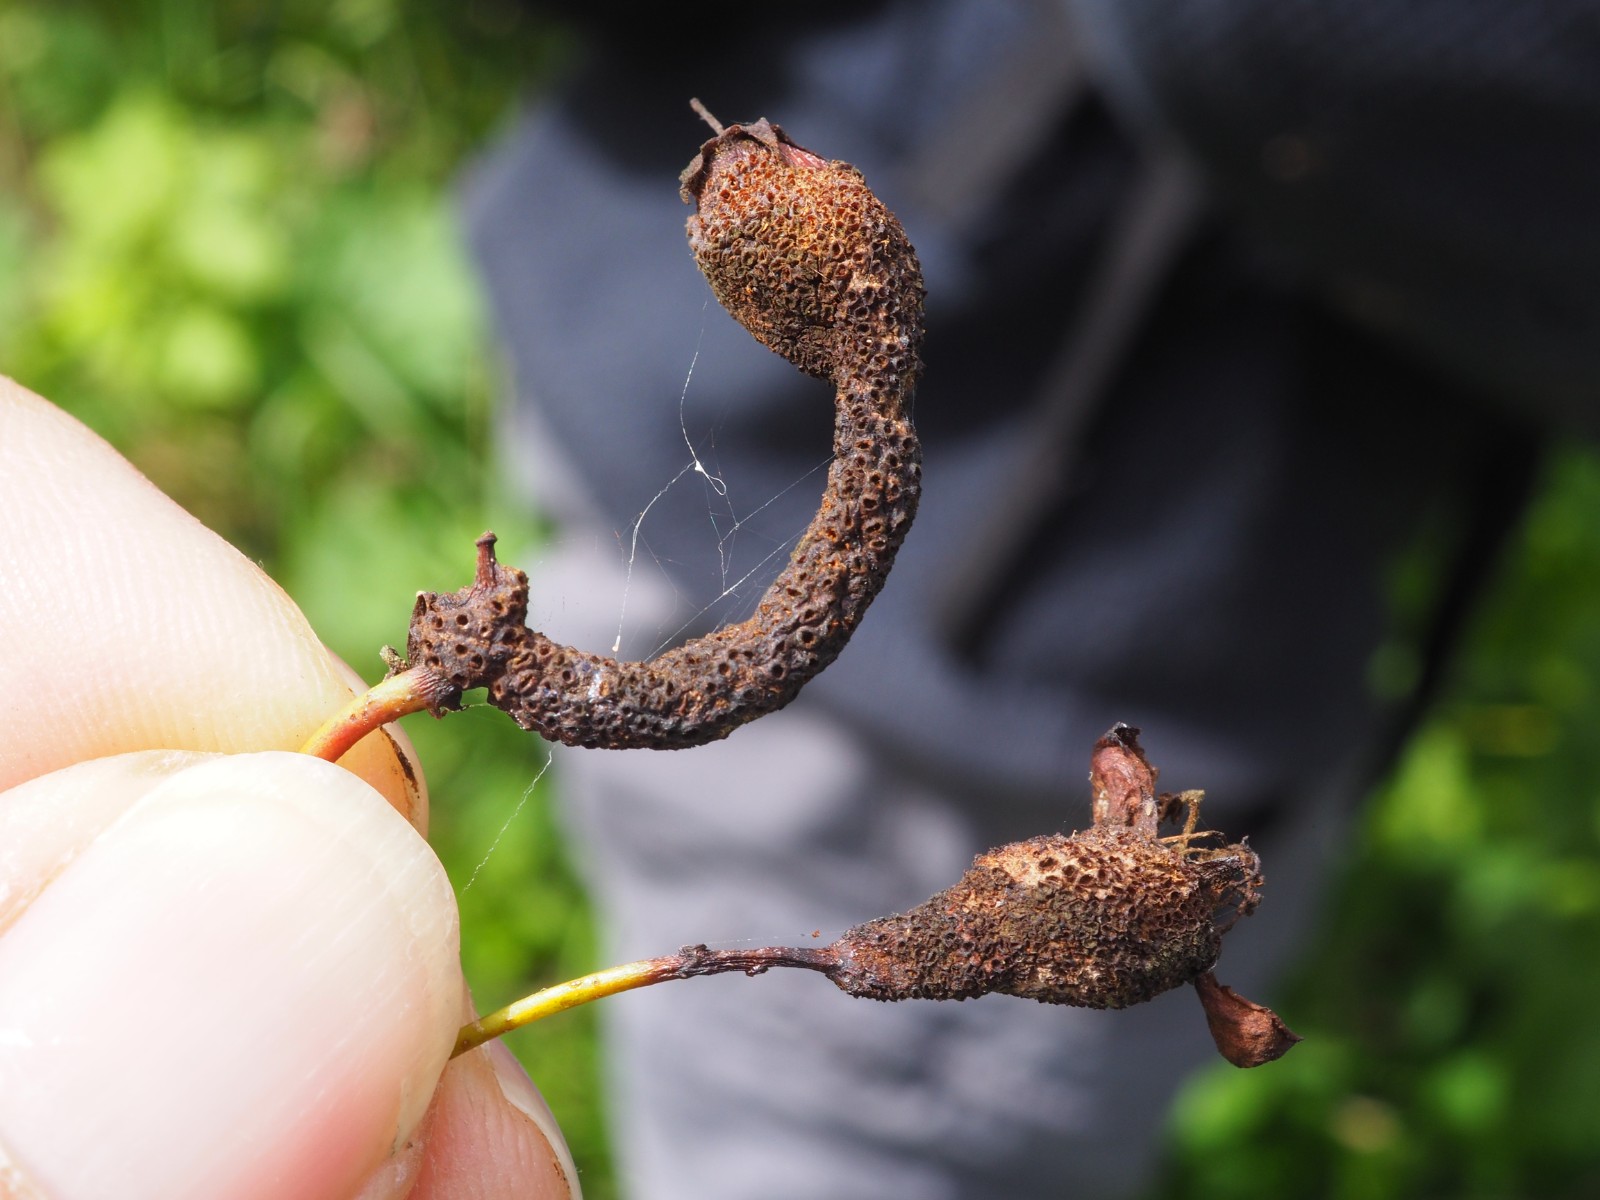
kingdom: Fungi
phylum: Basidiomycota
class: Pucciniomycetes
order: Pucciniales
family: Gymnosporangiaceae
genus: Gymnosporangium
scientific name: Gymnosporangium
